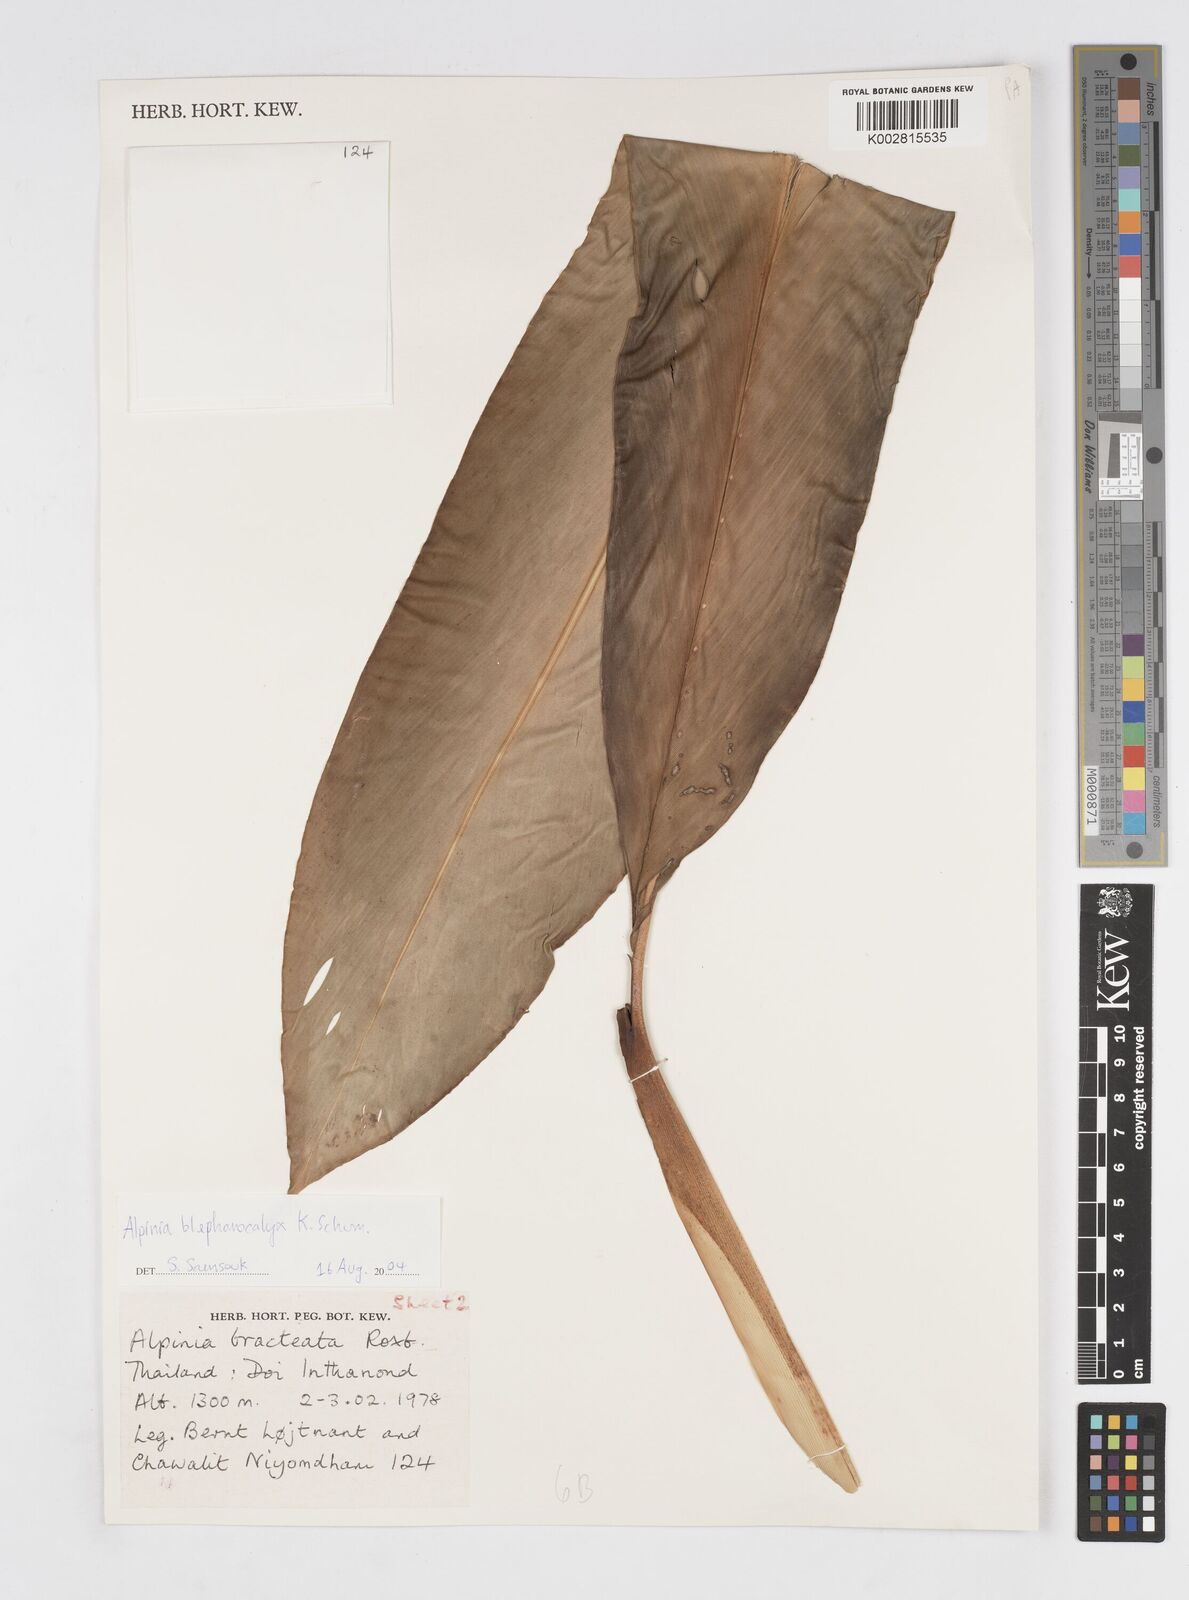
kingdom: Plantae
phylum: Tracheophyta
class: Liliopsida
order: Zingiberales
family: Zingiberaceae
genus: Alpinia
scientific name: Alpinia roxburghii
